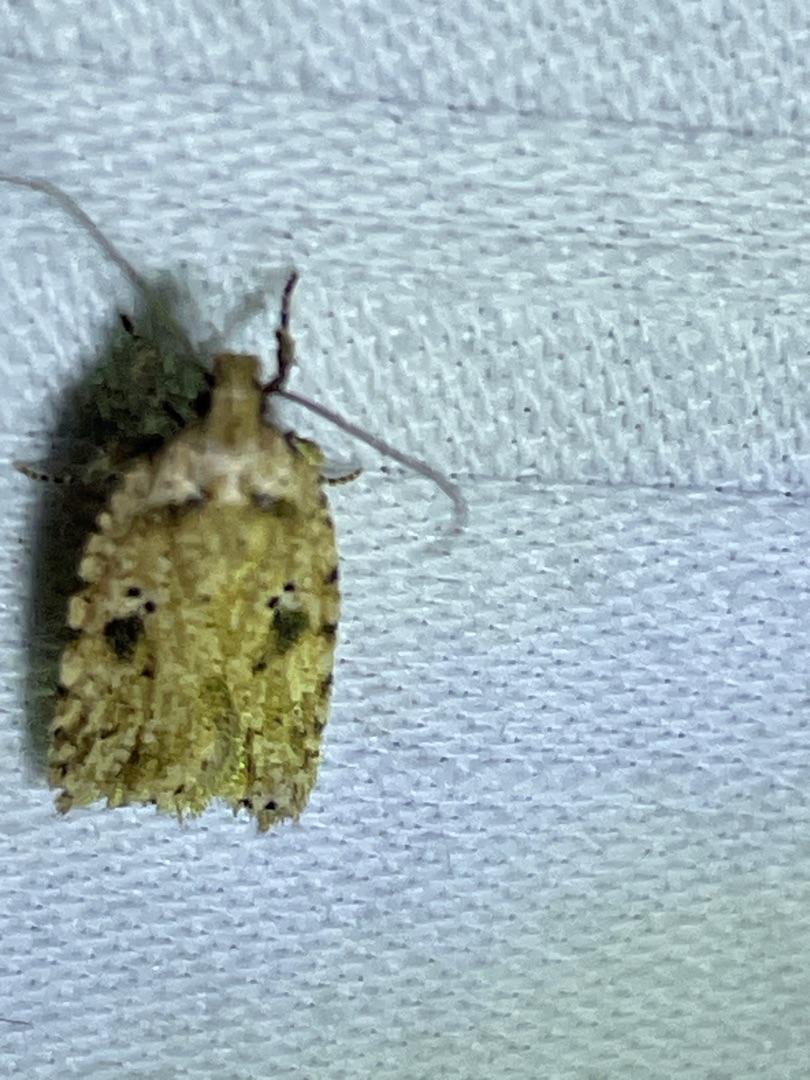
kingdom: Animalia
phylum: Arthropoda
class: Insecta
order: Lepidoptera
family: Depressariidae
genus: Agonopterix
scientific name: Agonopterix arenella
